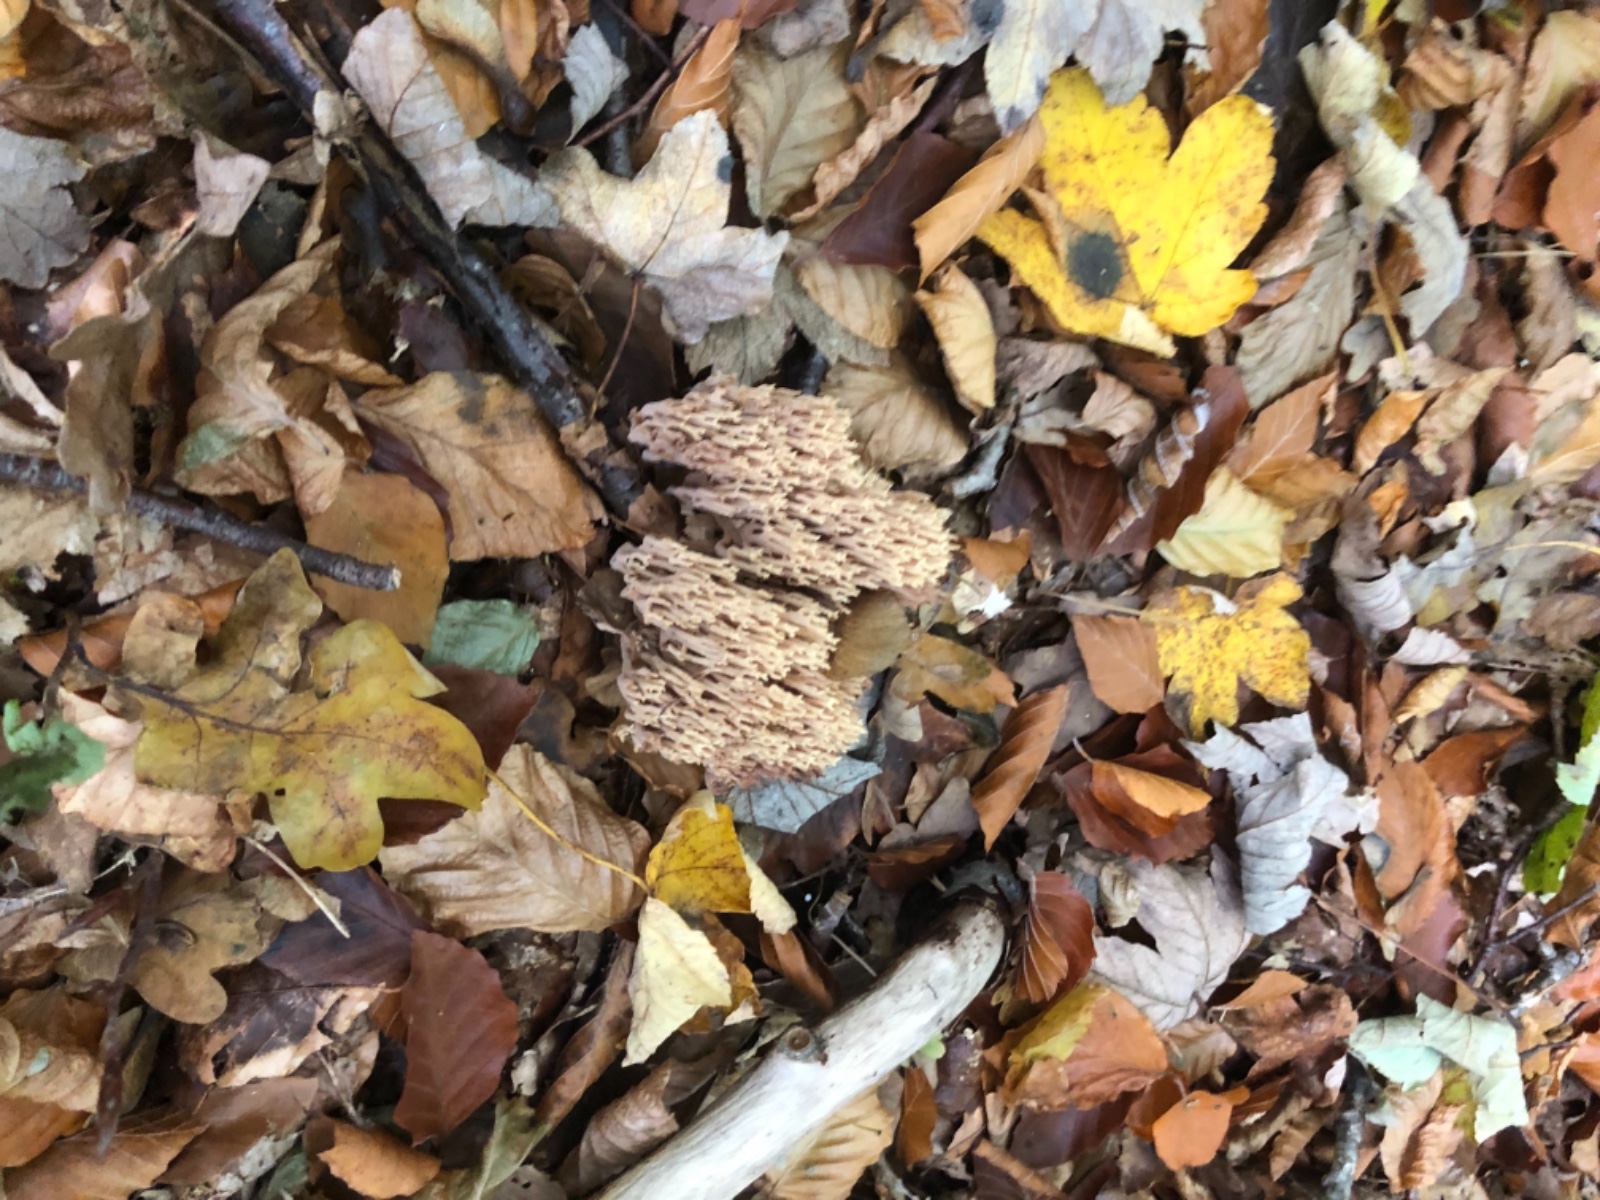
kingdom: Fungi
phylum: Basidiomycota
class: Agaricomycetes
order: Gomphales
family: Gomphaceae
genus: Ramaria
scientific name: Ramaria stricta
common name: rank koralsvamp
